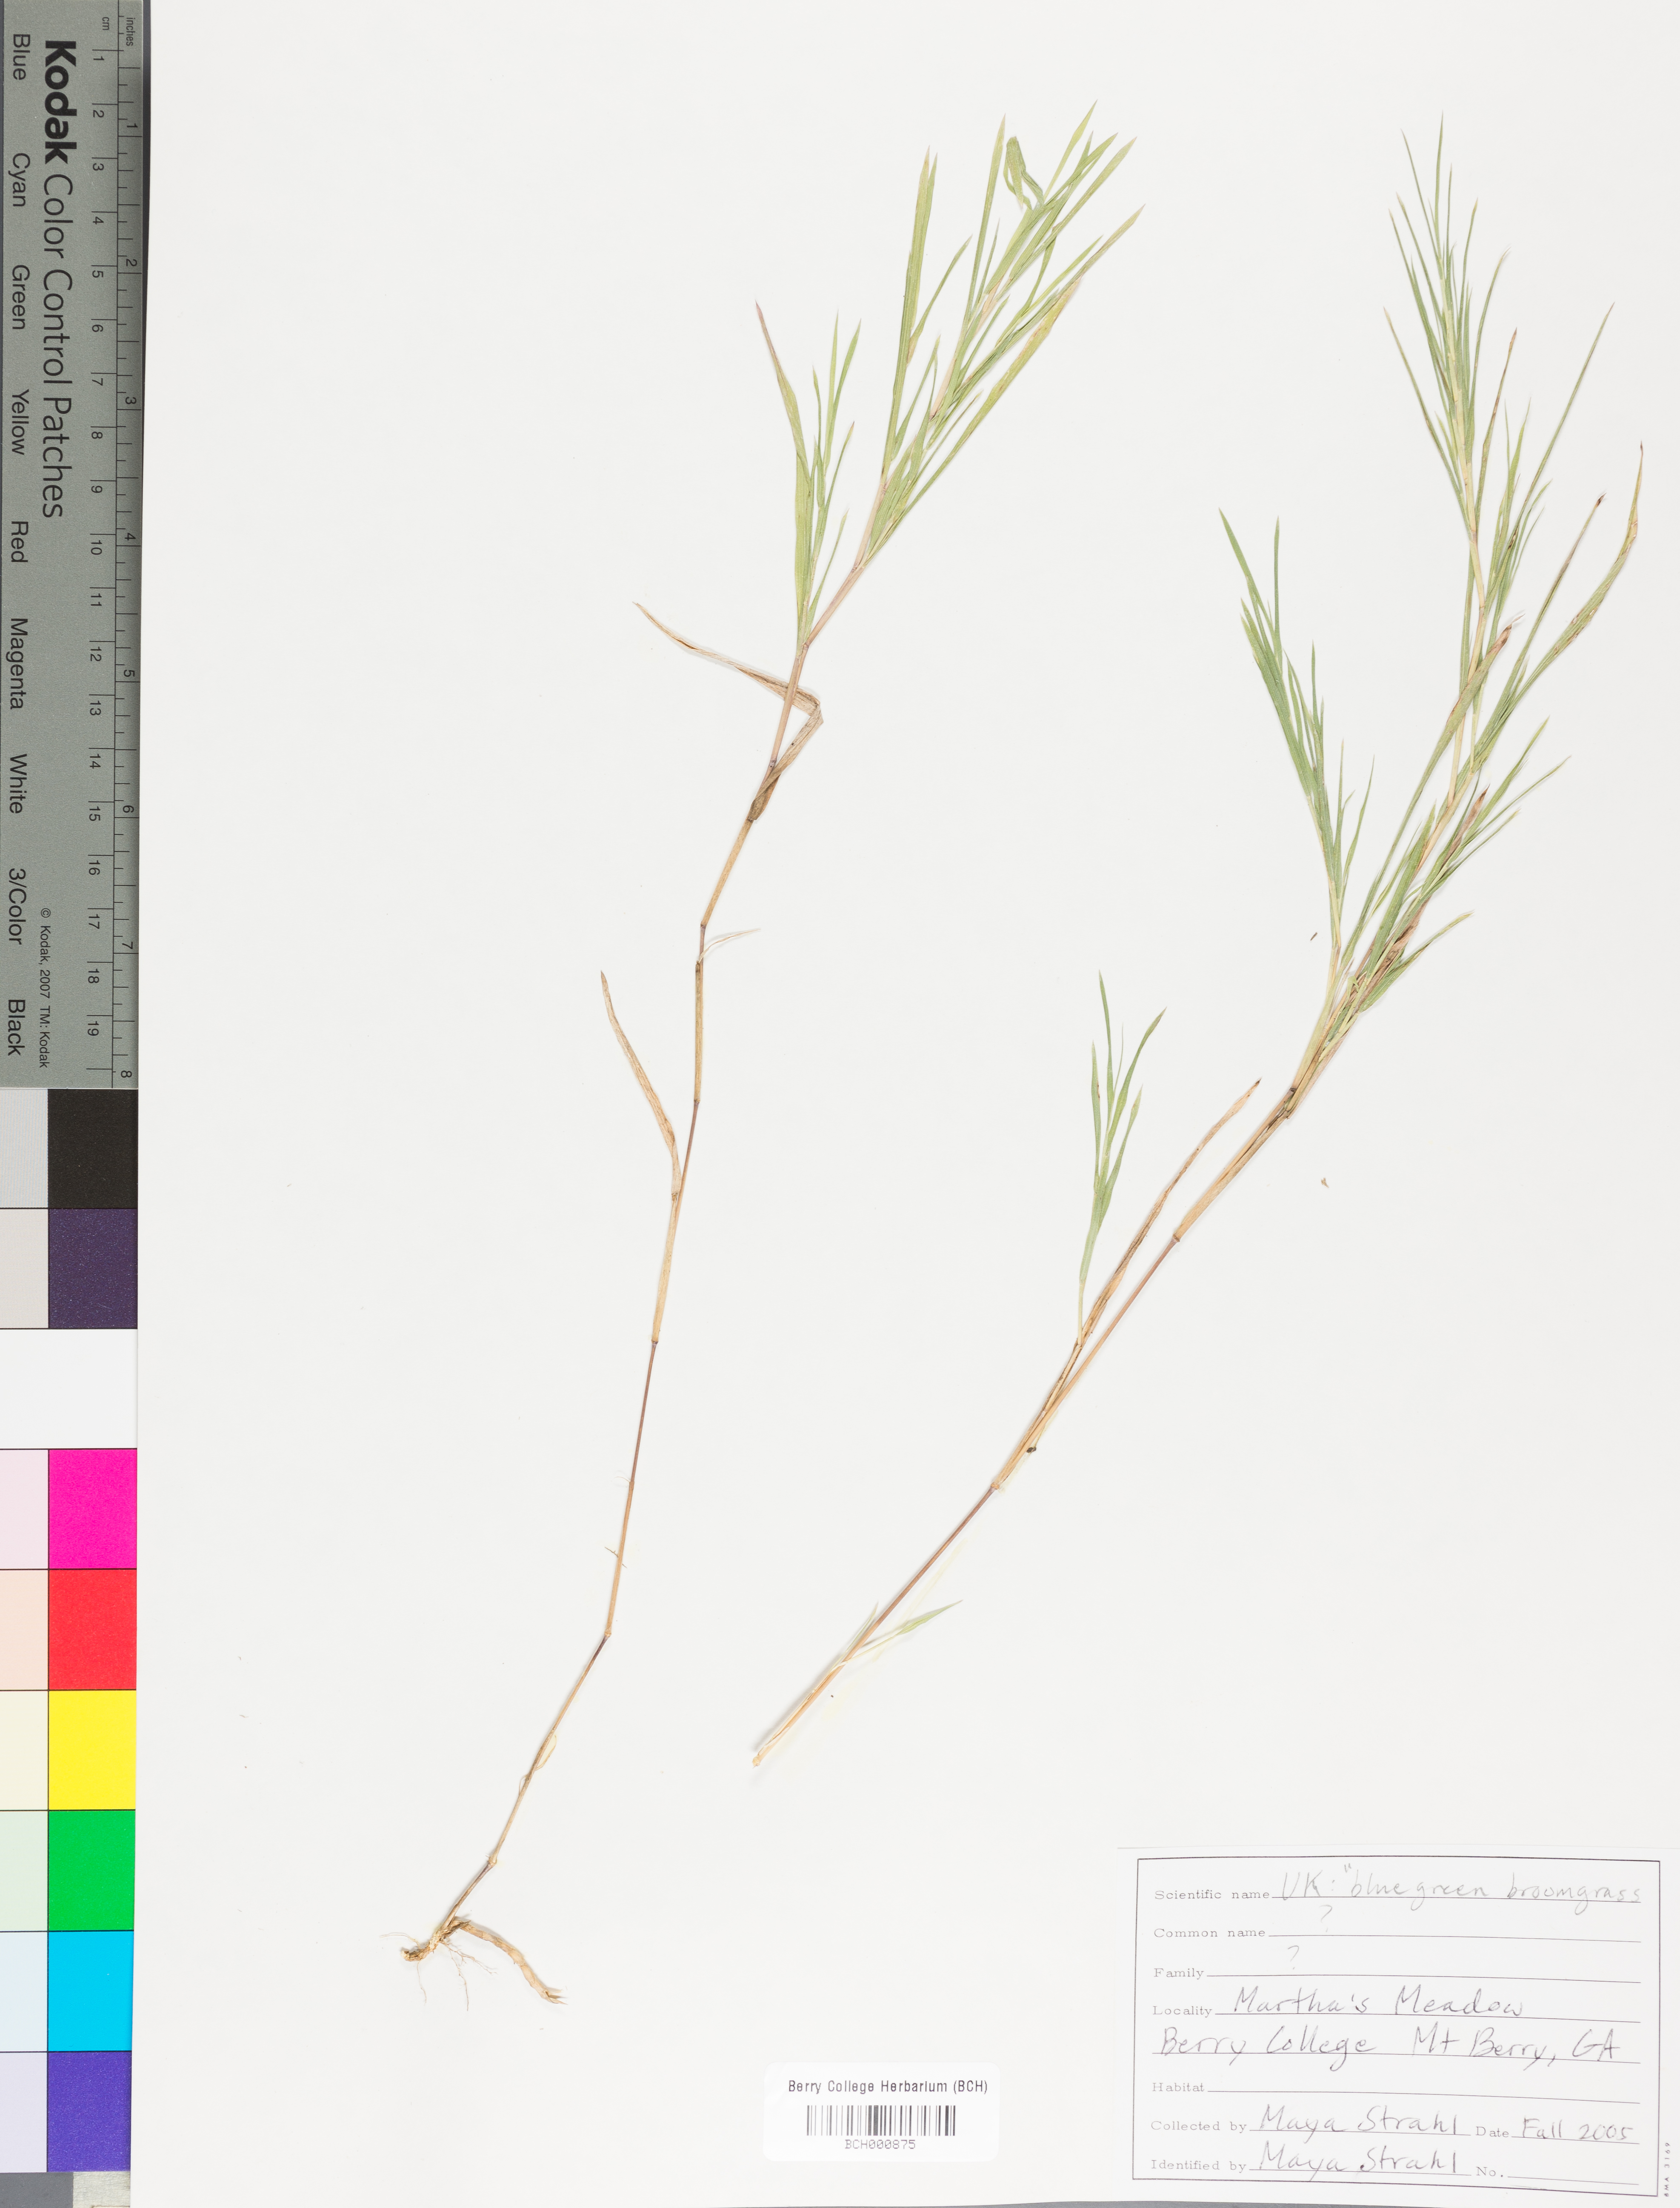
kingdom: Plantae
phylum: Tracheophyta
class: Magnoliopsida
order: Lamiales
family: Acanthaceae
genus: Adhatoda
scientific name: Adhatoda
